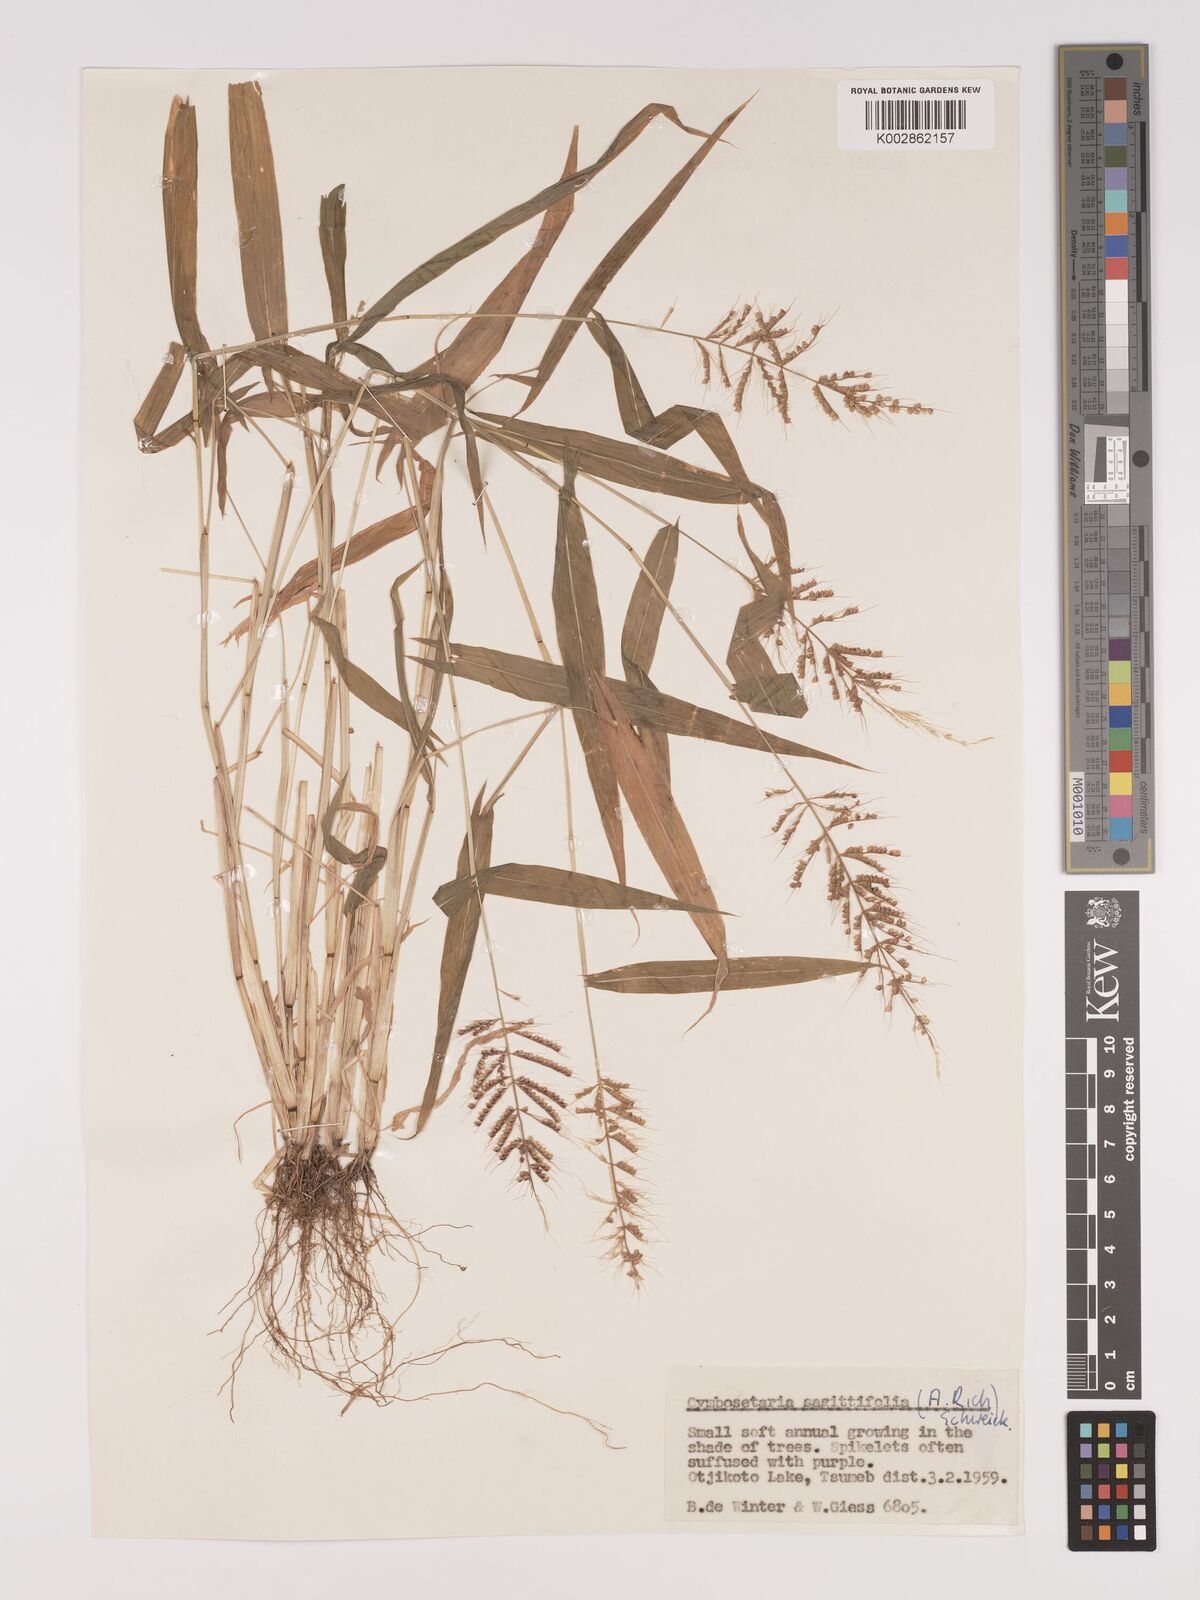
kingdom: Plantae
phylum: Tracheophyta
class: Liliopsida
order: Poales
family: Poaceae
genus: Setaria
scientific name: Setaria sagittifolia
